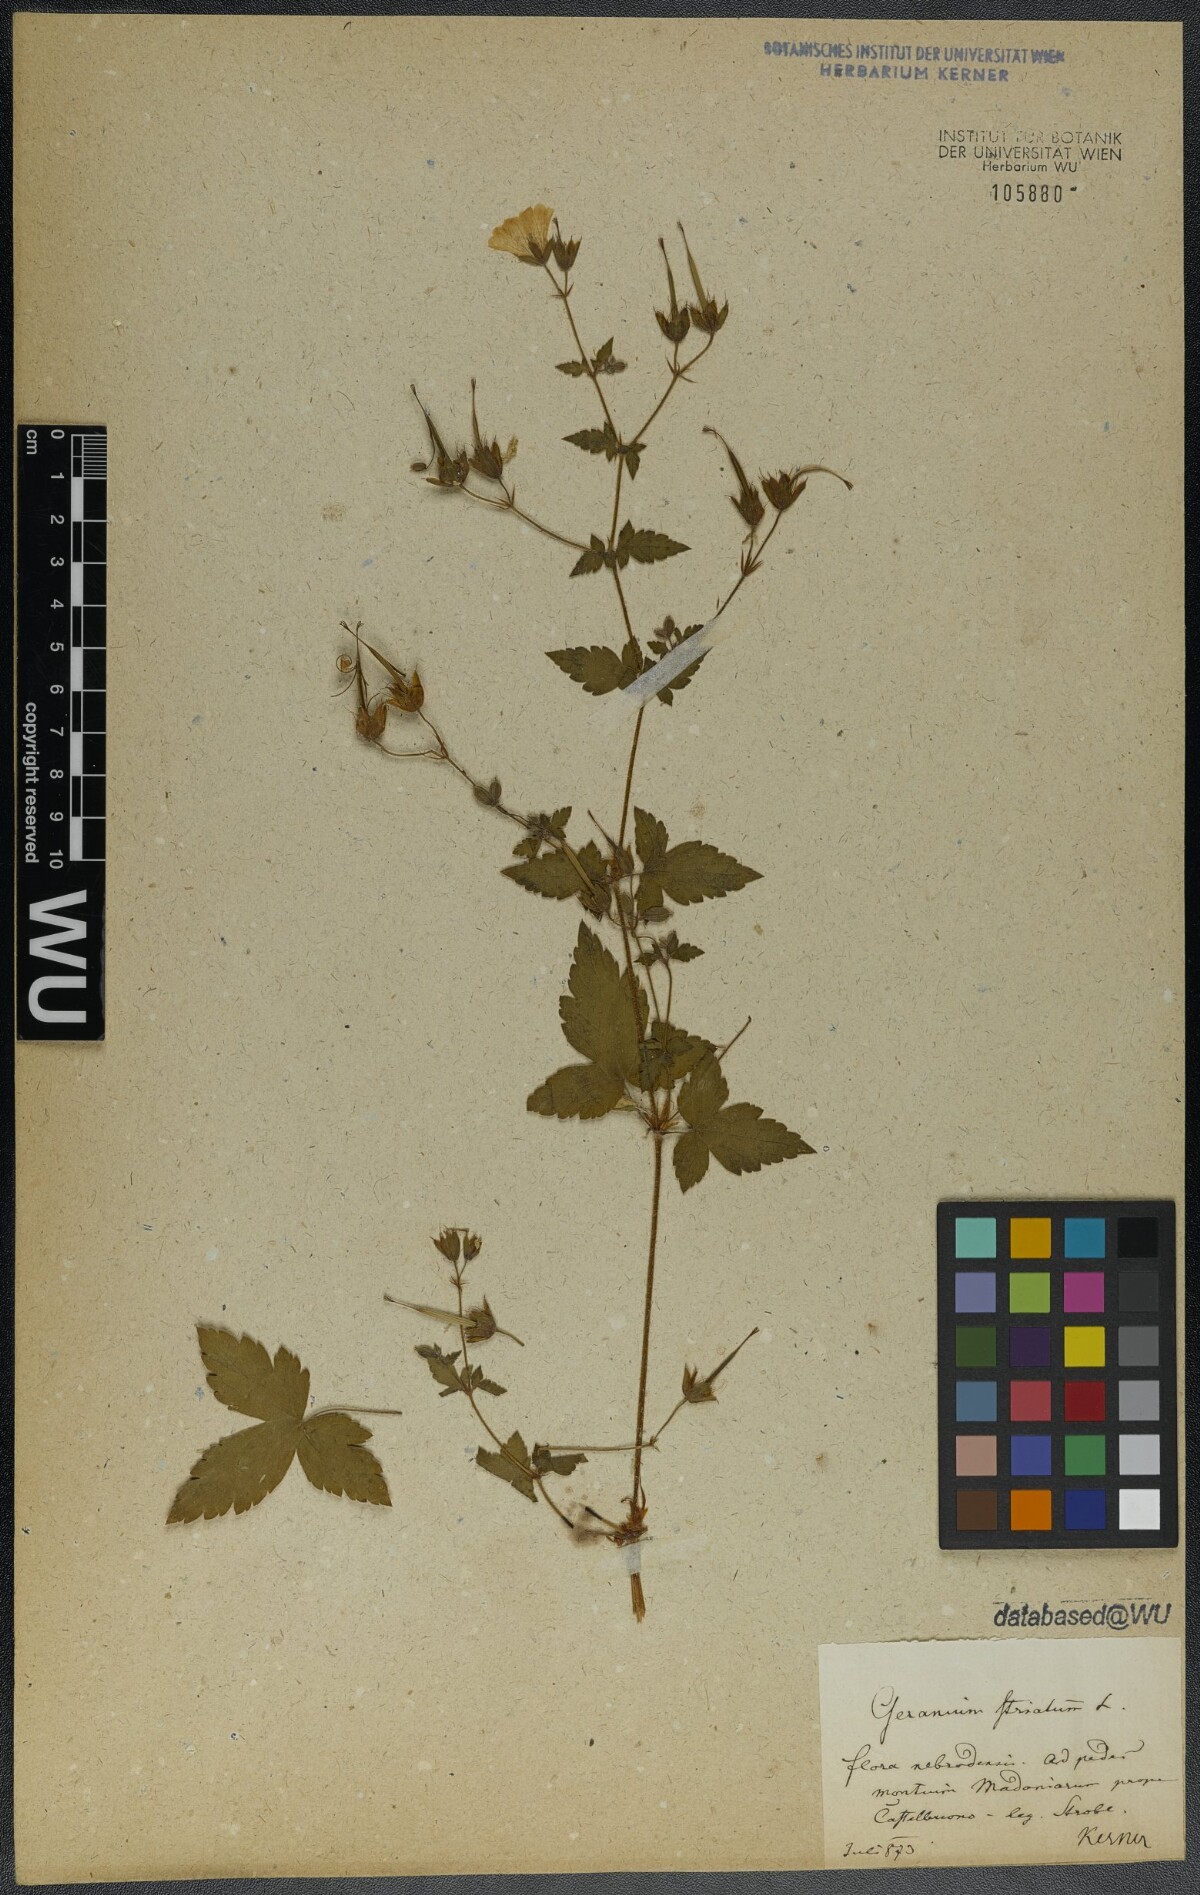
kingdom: Plantae
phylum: Tracheophyta
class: Magnoliopsida
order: Geraniales
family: Geraniaceae
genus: Geranium
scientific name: Geranium versicolor
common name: Pencilled crane's-bill
